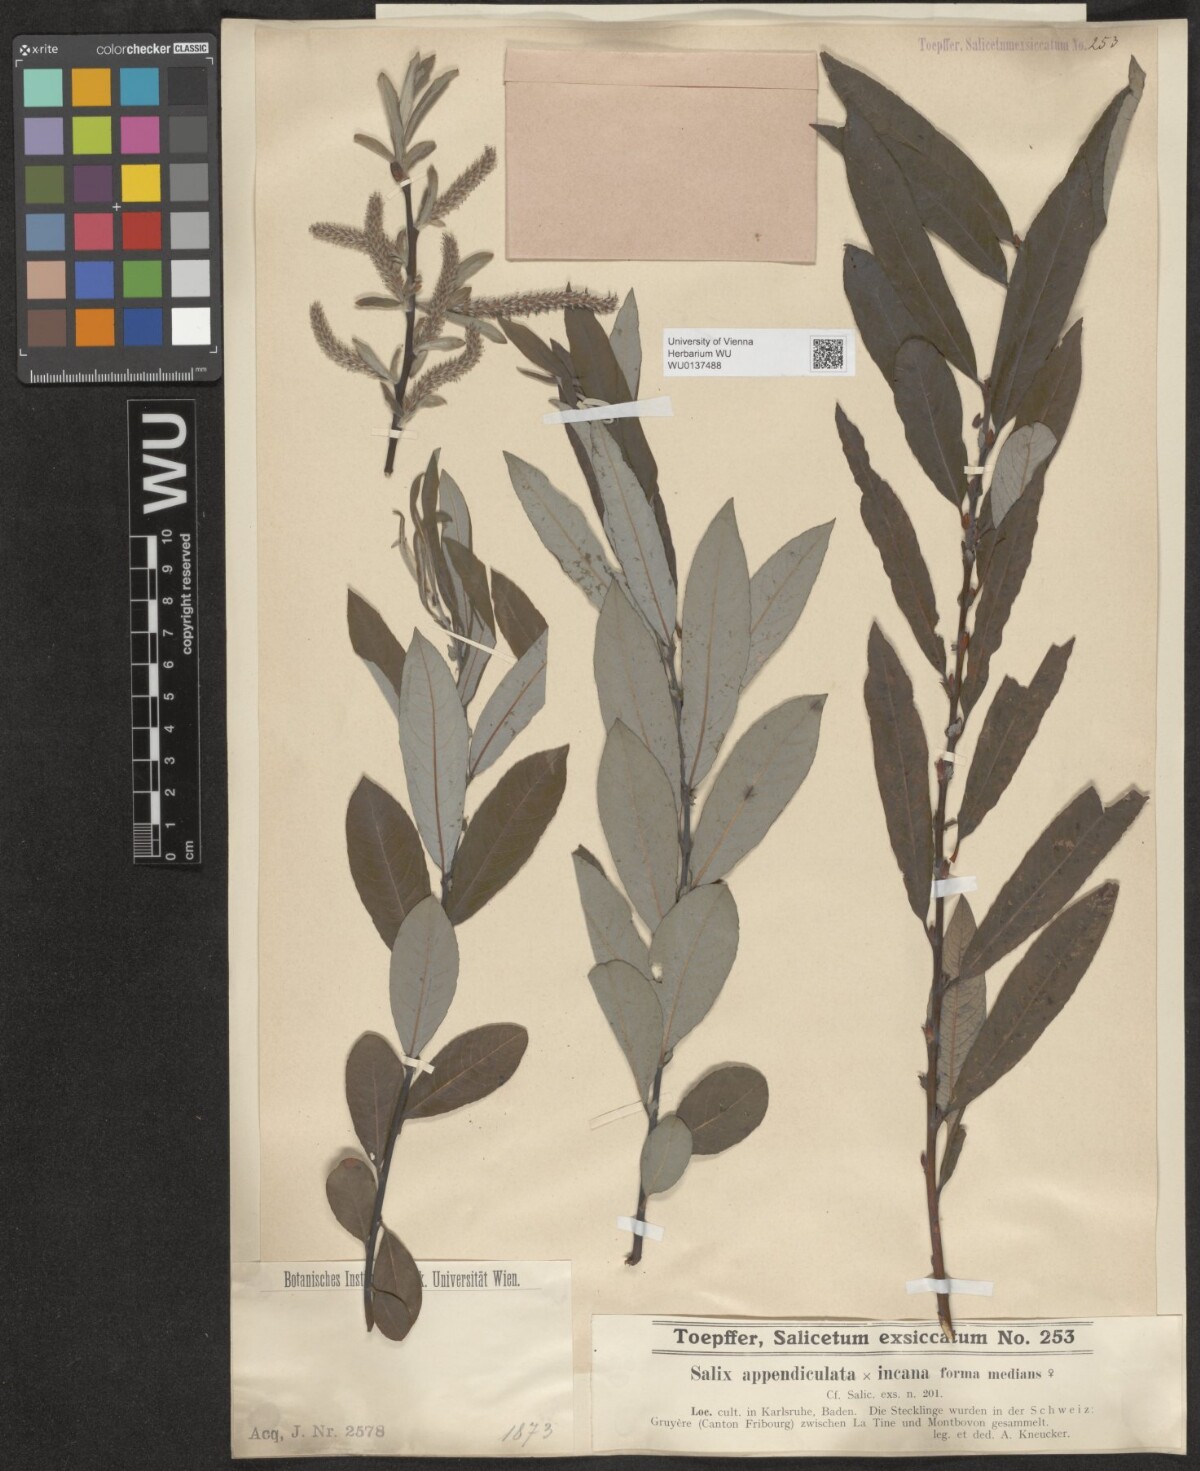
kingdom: Plantae
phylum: Tracheophyta
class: Magnoliopsida
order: Malpighiales
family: Salicaceae
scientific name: Salicaceae
